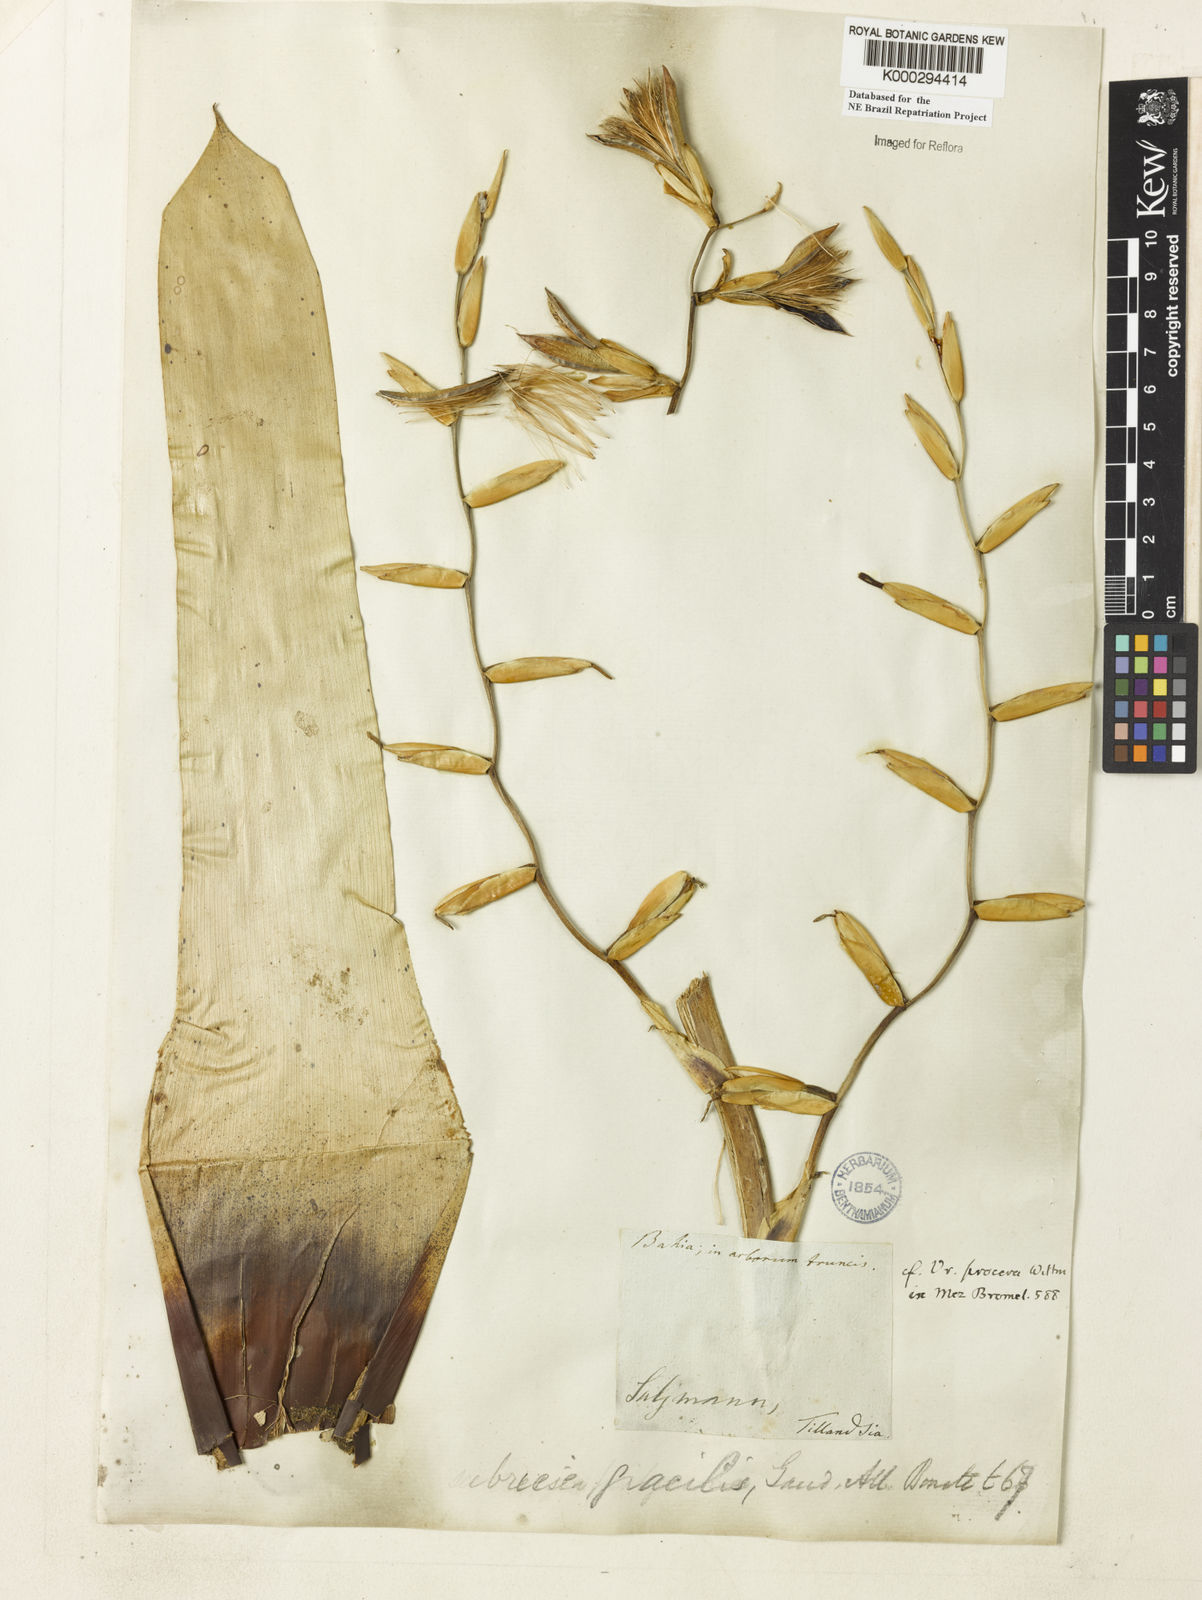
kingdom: Plantae
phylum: Tracheophyta
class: Liliopsida
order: Poales
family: Bromeliaceae
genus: Vriesea
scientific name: Vriesea procera
